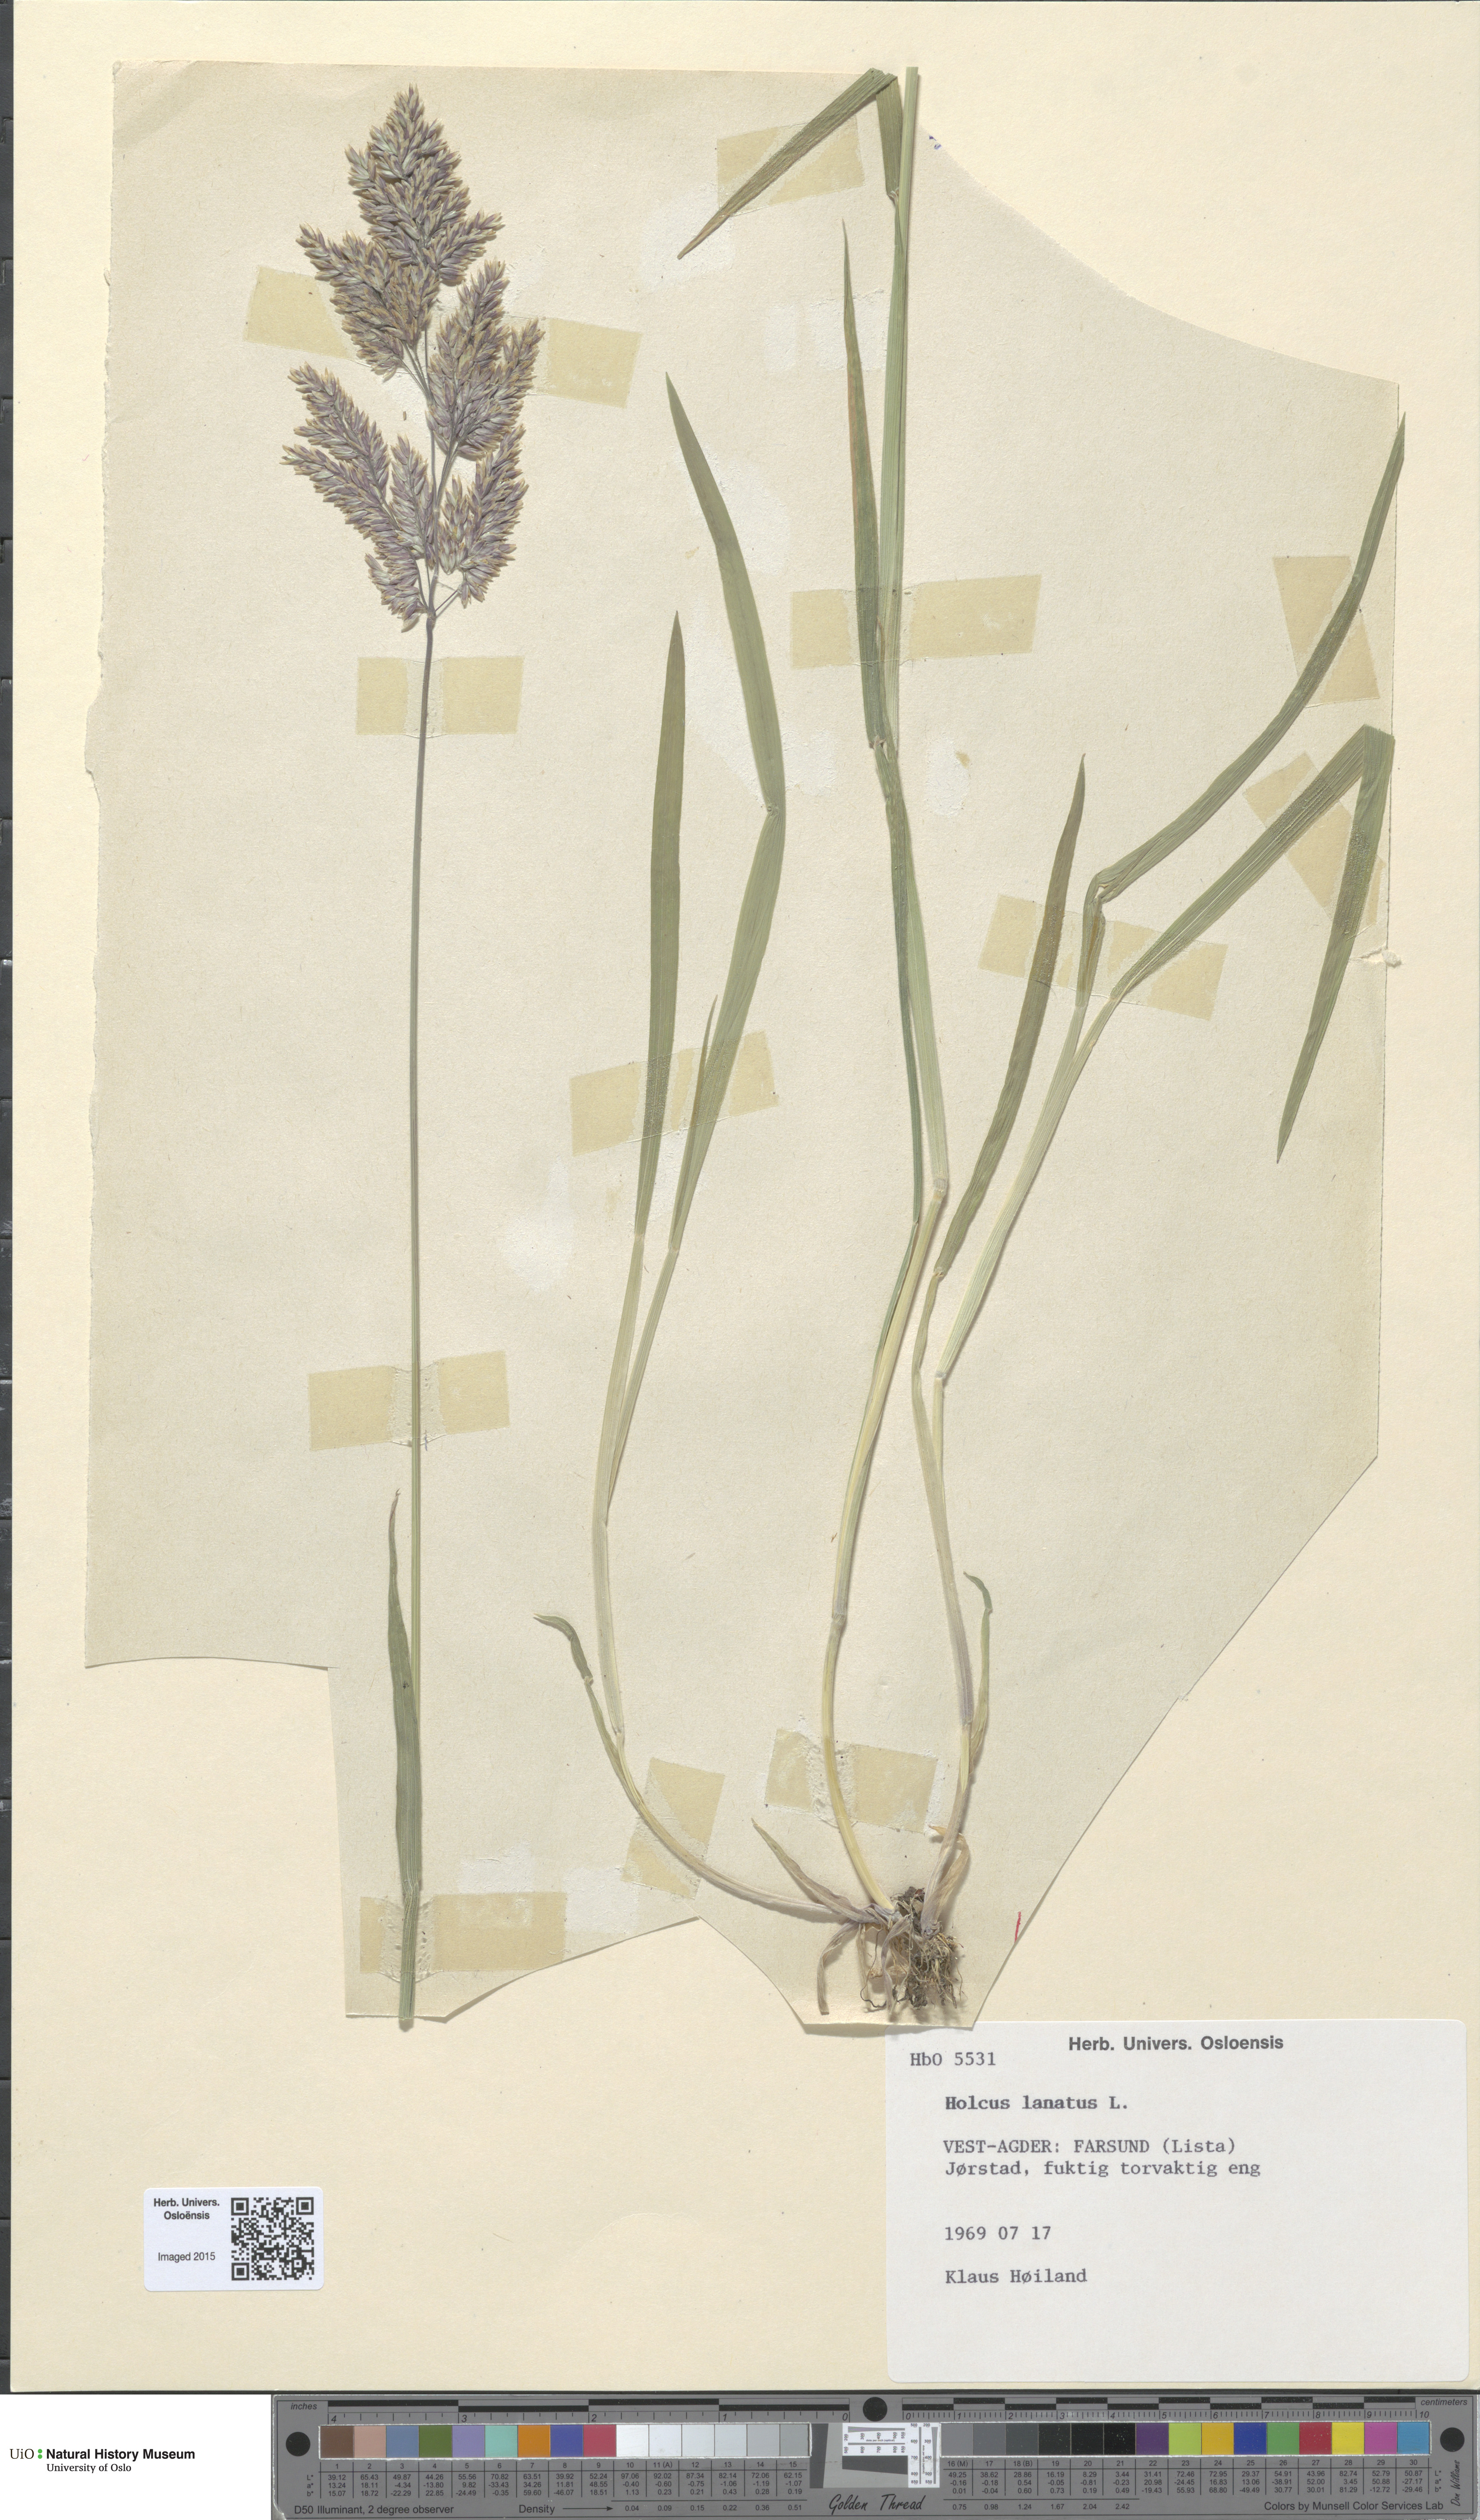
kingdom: Plantae
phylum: Tracheophyta
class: Liliopsida
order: Poales
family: Poaceae
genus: Holcus
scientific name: Holcus lanatus
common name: Yorkshire-fog
